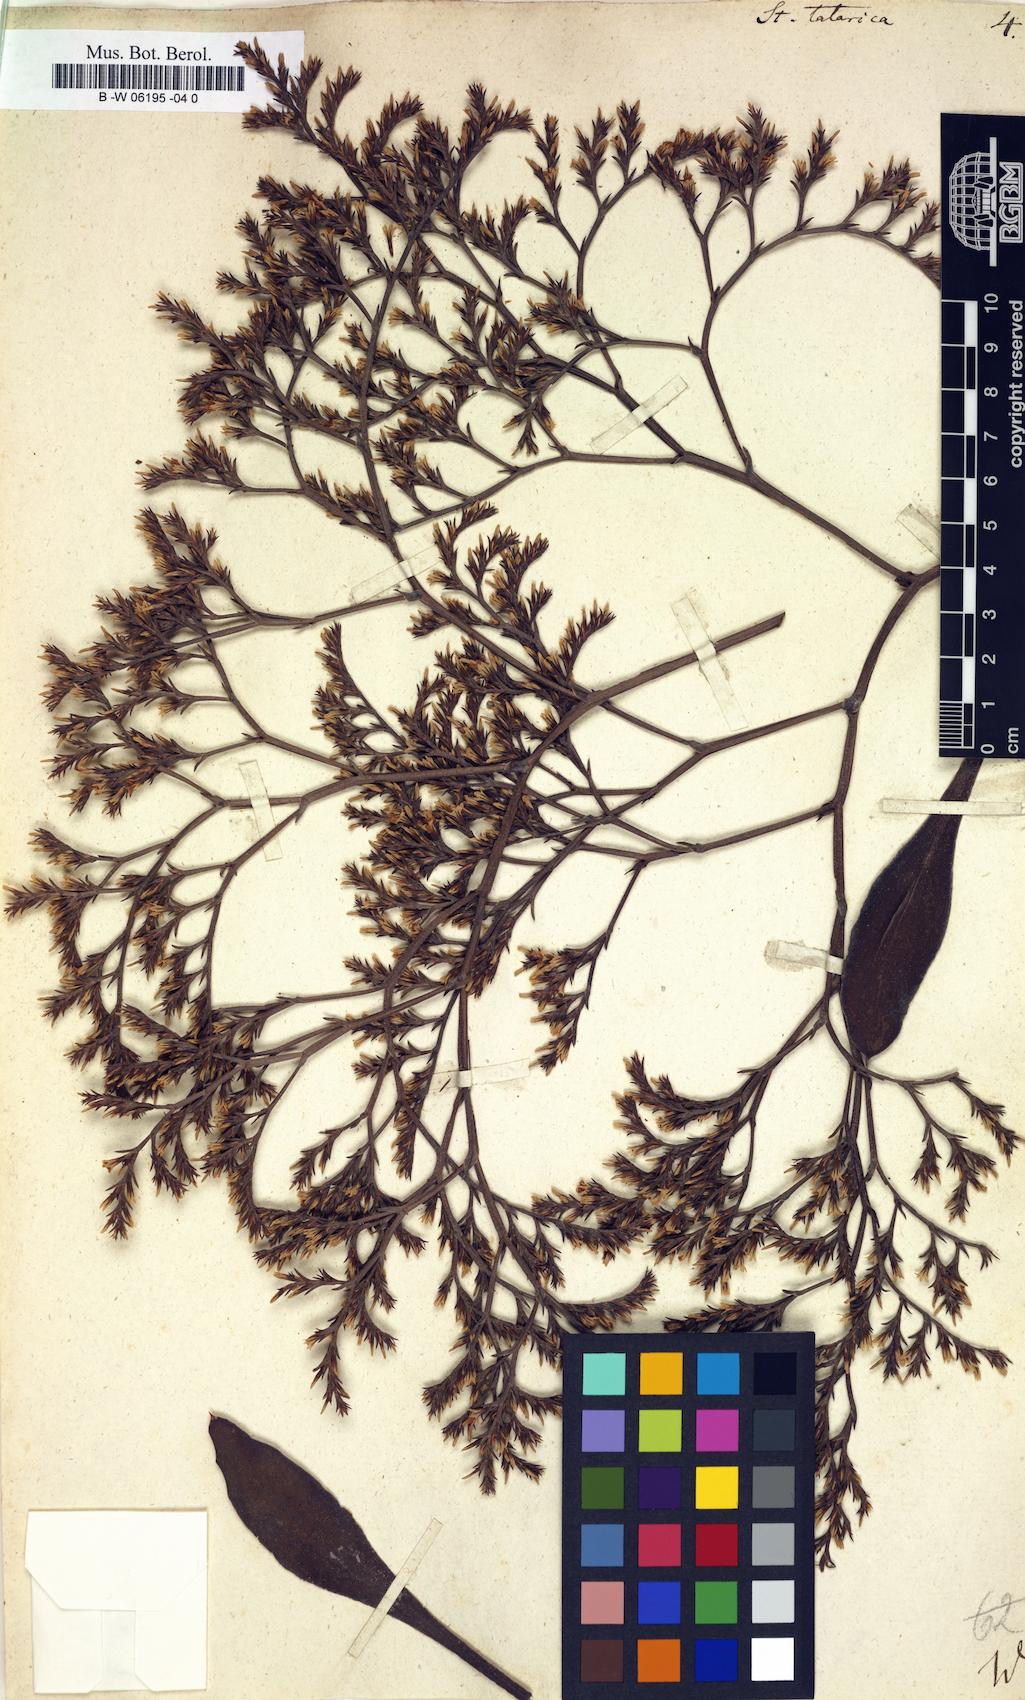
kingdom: Plantae
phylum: Tracheophyta
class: Magnoliopsida
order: Caryophyllales
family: Plumbaginaceae
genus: Goniolimon
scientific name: Goniolimon tataricum
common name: Statice
